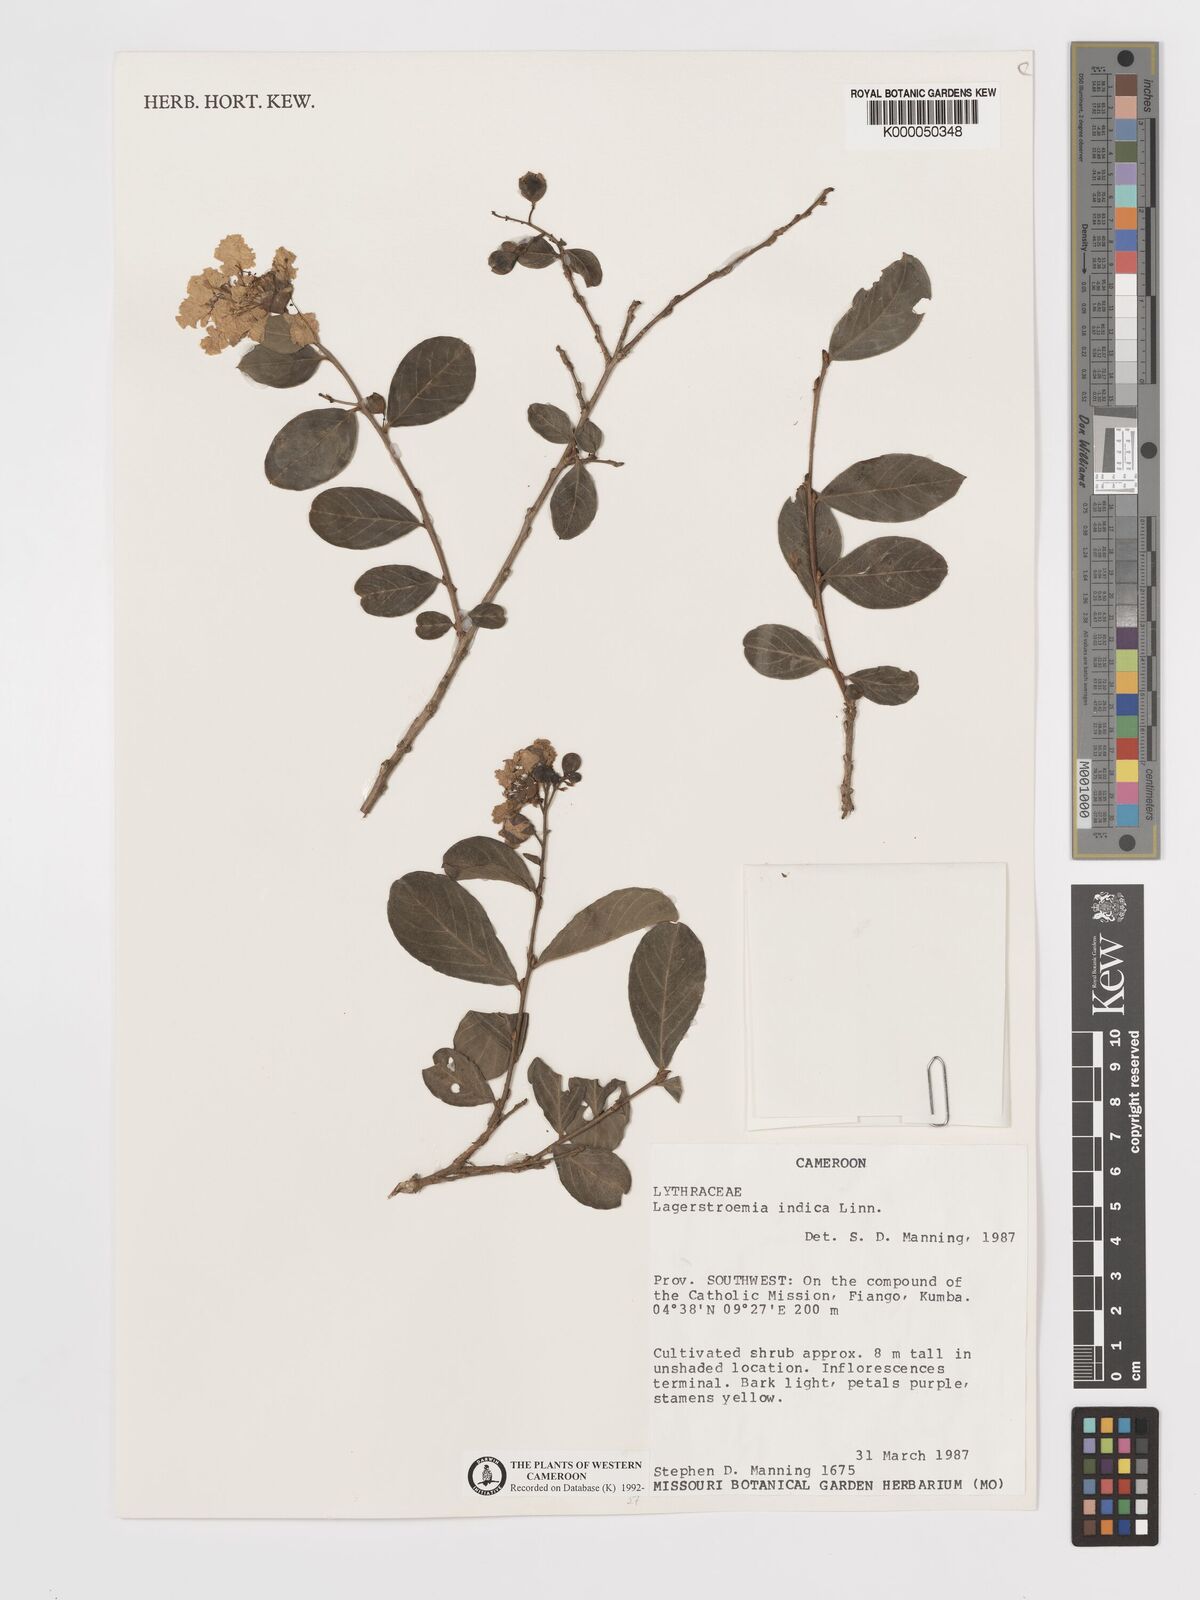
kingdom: Plantae
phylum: Tracheophyta
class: Magnoliopsida
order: Myrtales
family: Lythraceae
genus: Lagerstroemia
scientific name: Lagerstroemia indica
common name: Crape-myrtle
